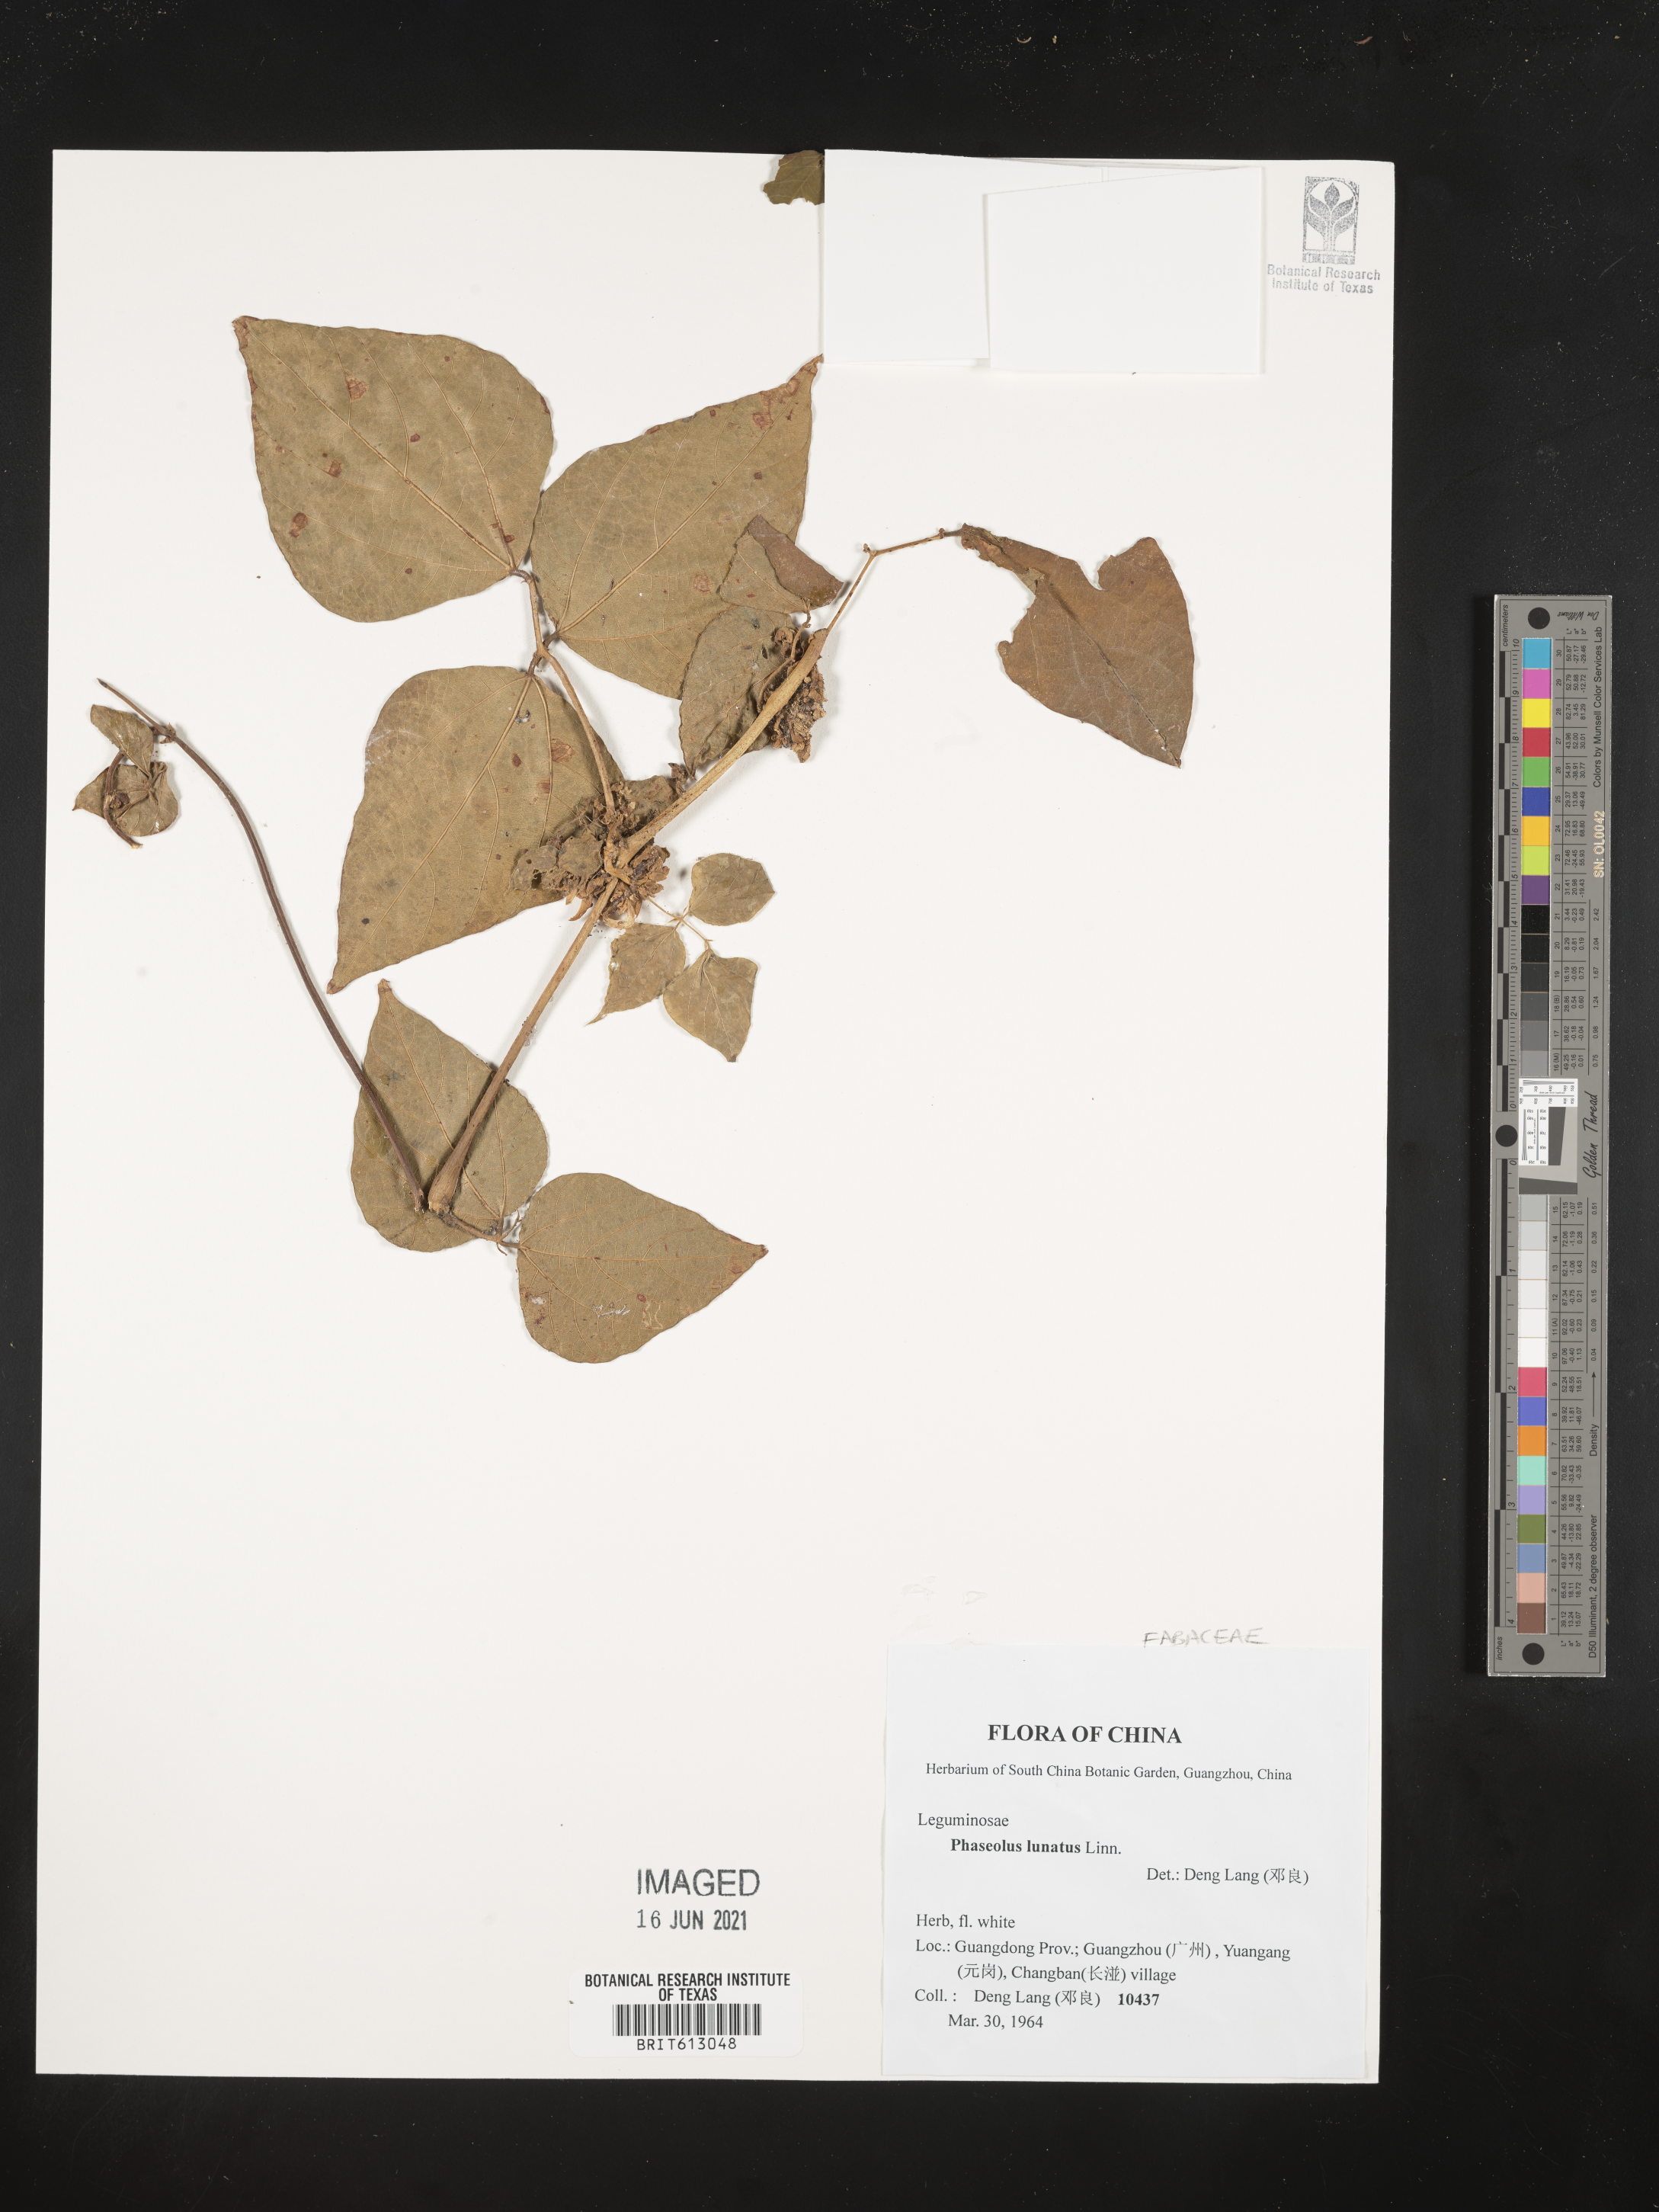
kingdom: Plantae
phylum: Tracheophyta
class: Magnoliopsida
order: Fabales
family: Fabaceae
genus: Phaseolus
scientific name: Phaseolus lunatus
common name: Sieva bean
